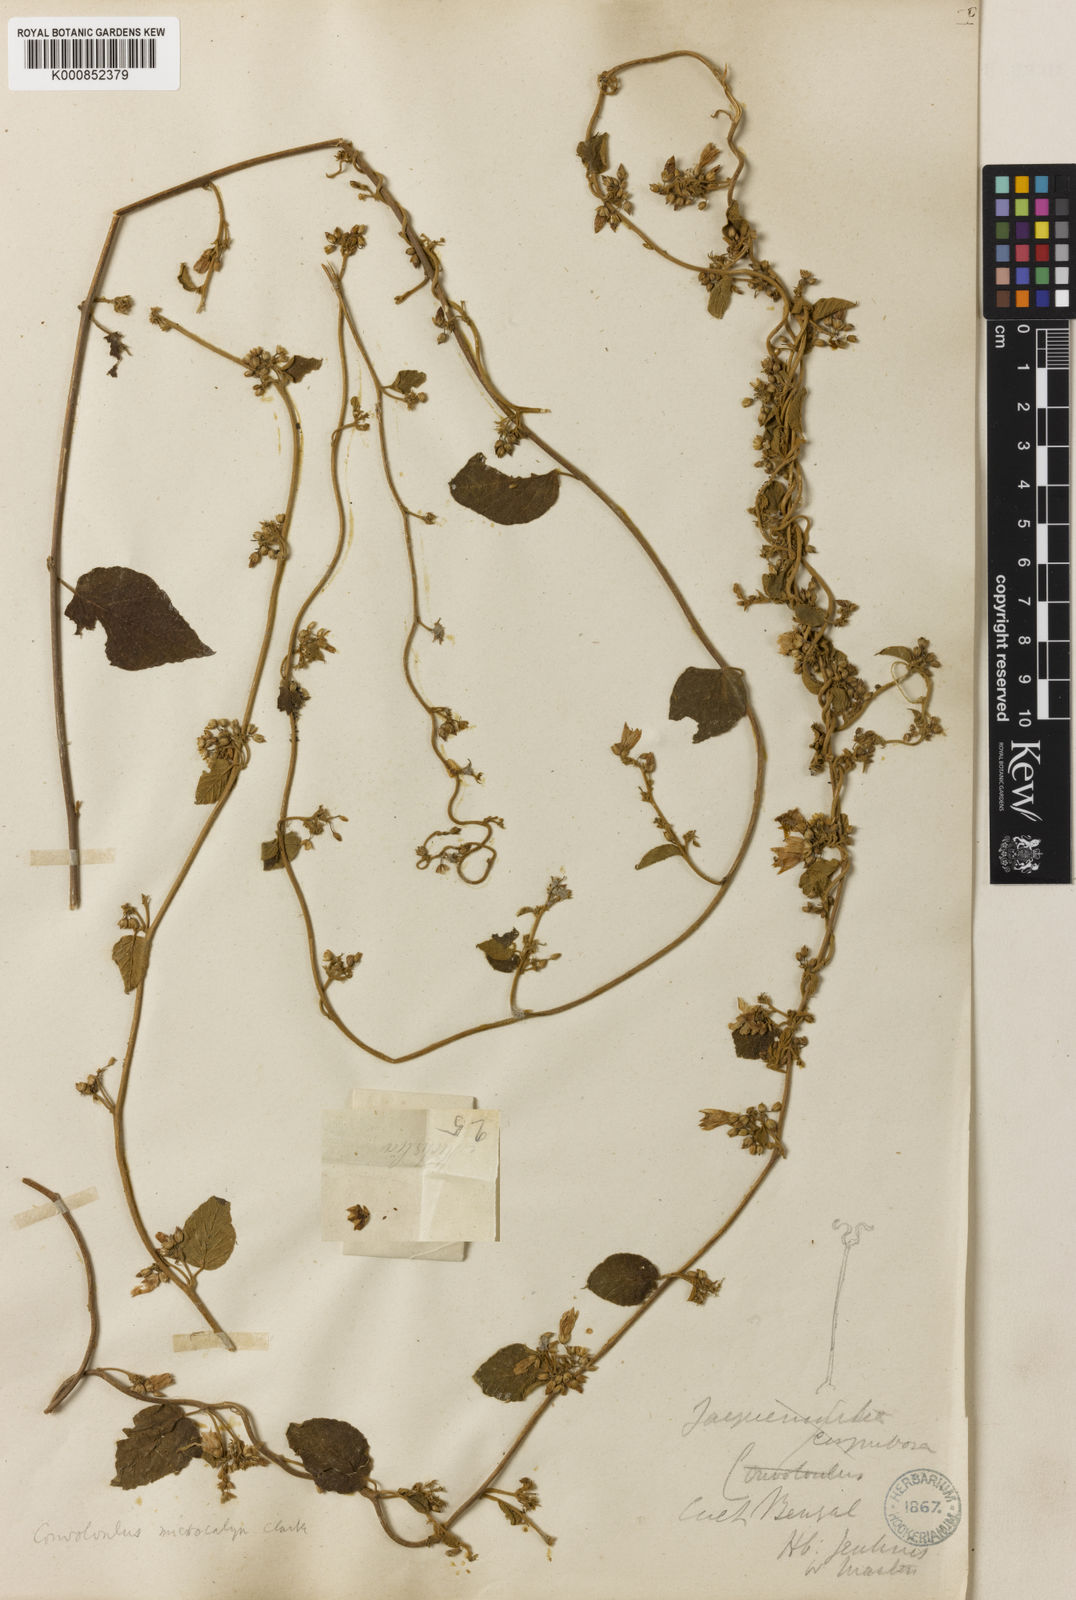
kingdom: Plantae
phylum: Tracheophyta
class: Magnoliopsida
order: Solanales
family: Convolvulaceae
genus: Convolvulus
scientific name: Convolvulus microcalyx
